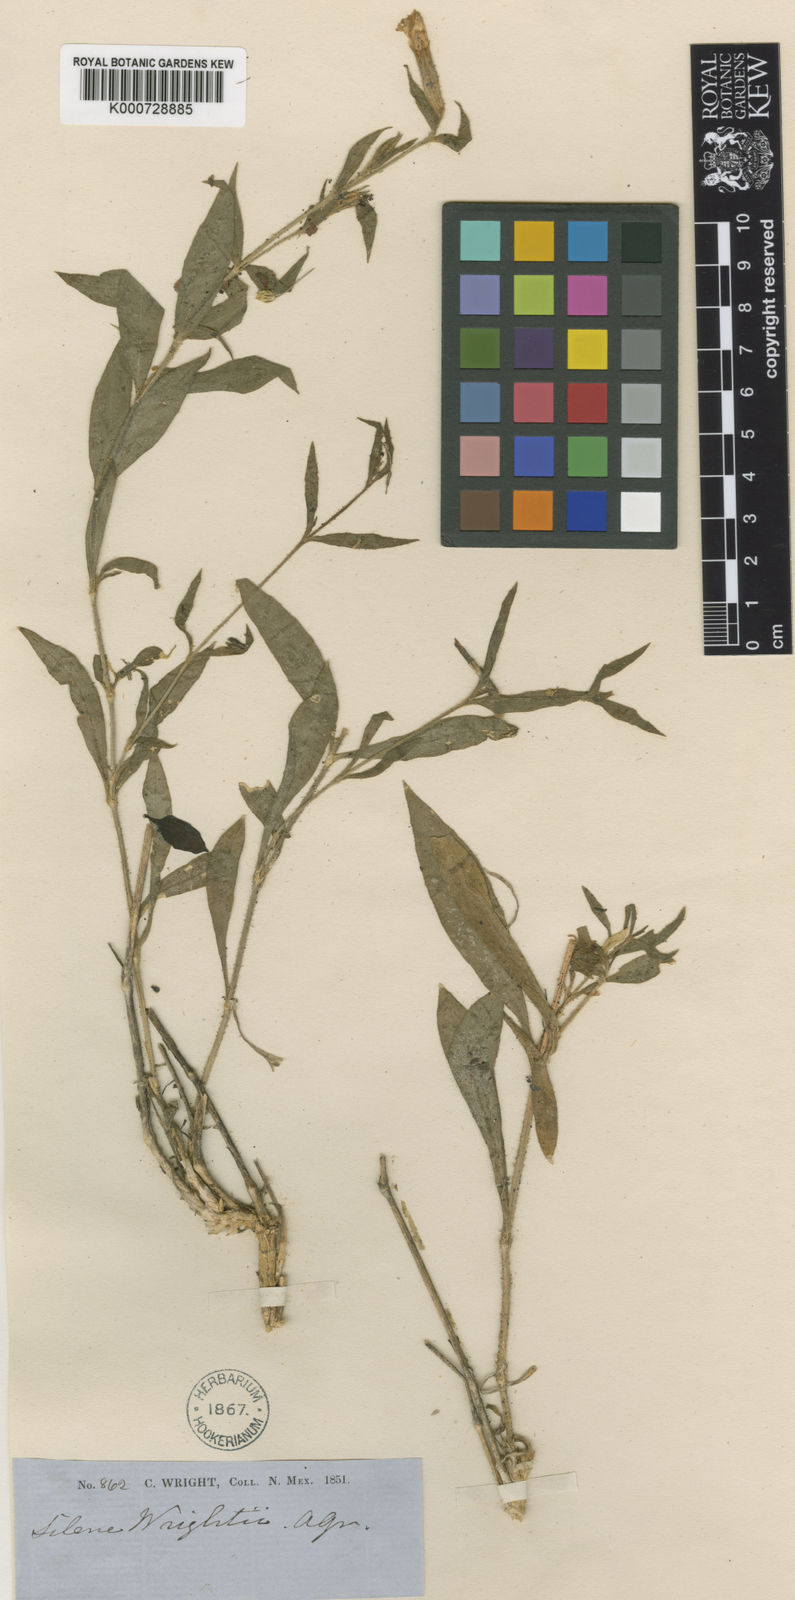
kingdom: Plantae
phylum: Tracheophyta
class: Magnoliopsida
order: Caryophyllales
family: Caryophyllaceae
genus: Silene
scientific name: Silene wrightii
